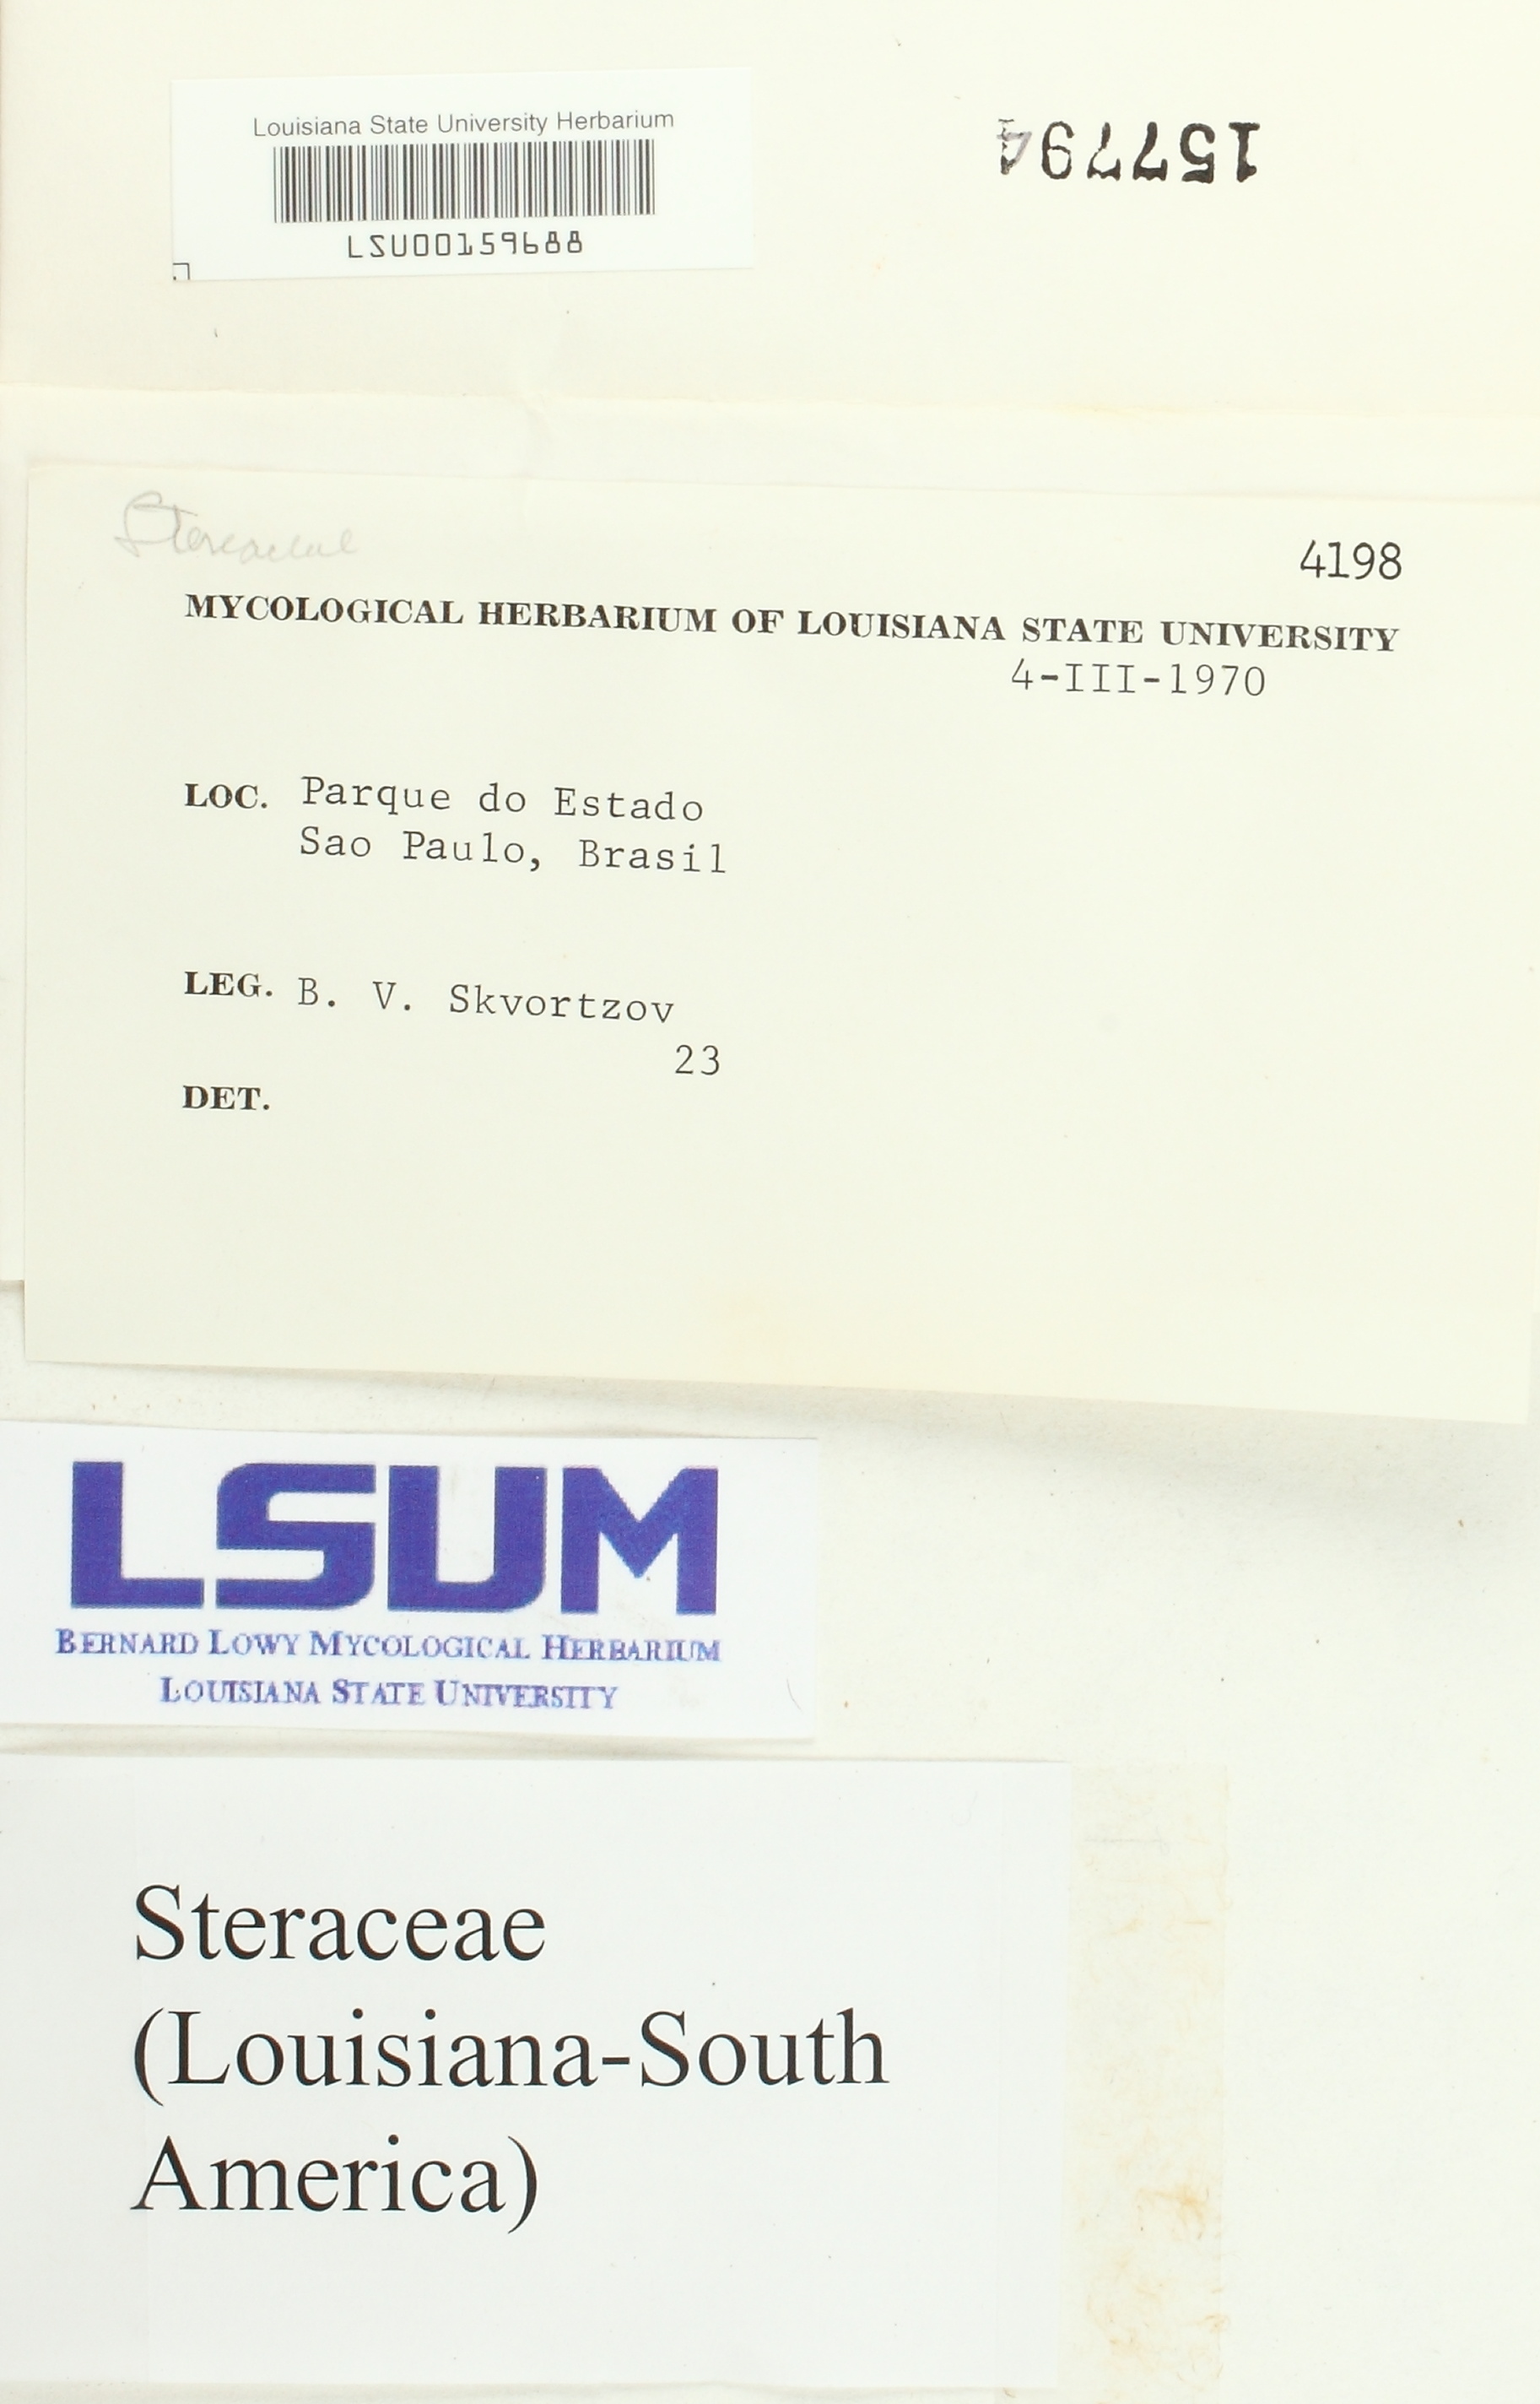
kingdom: Fungi
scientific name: Fungi
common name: Fungi
